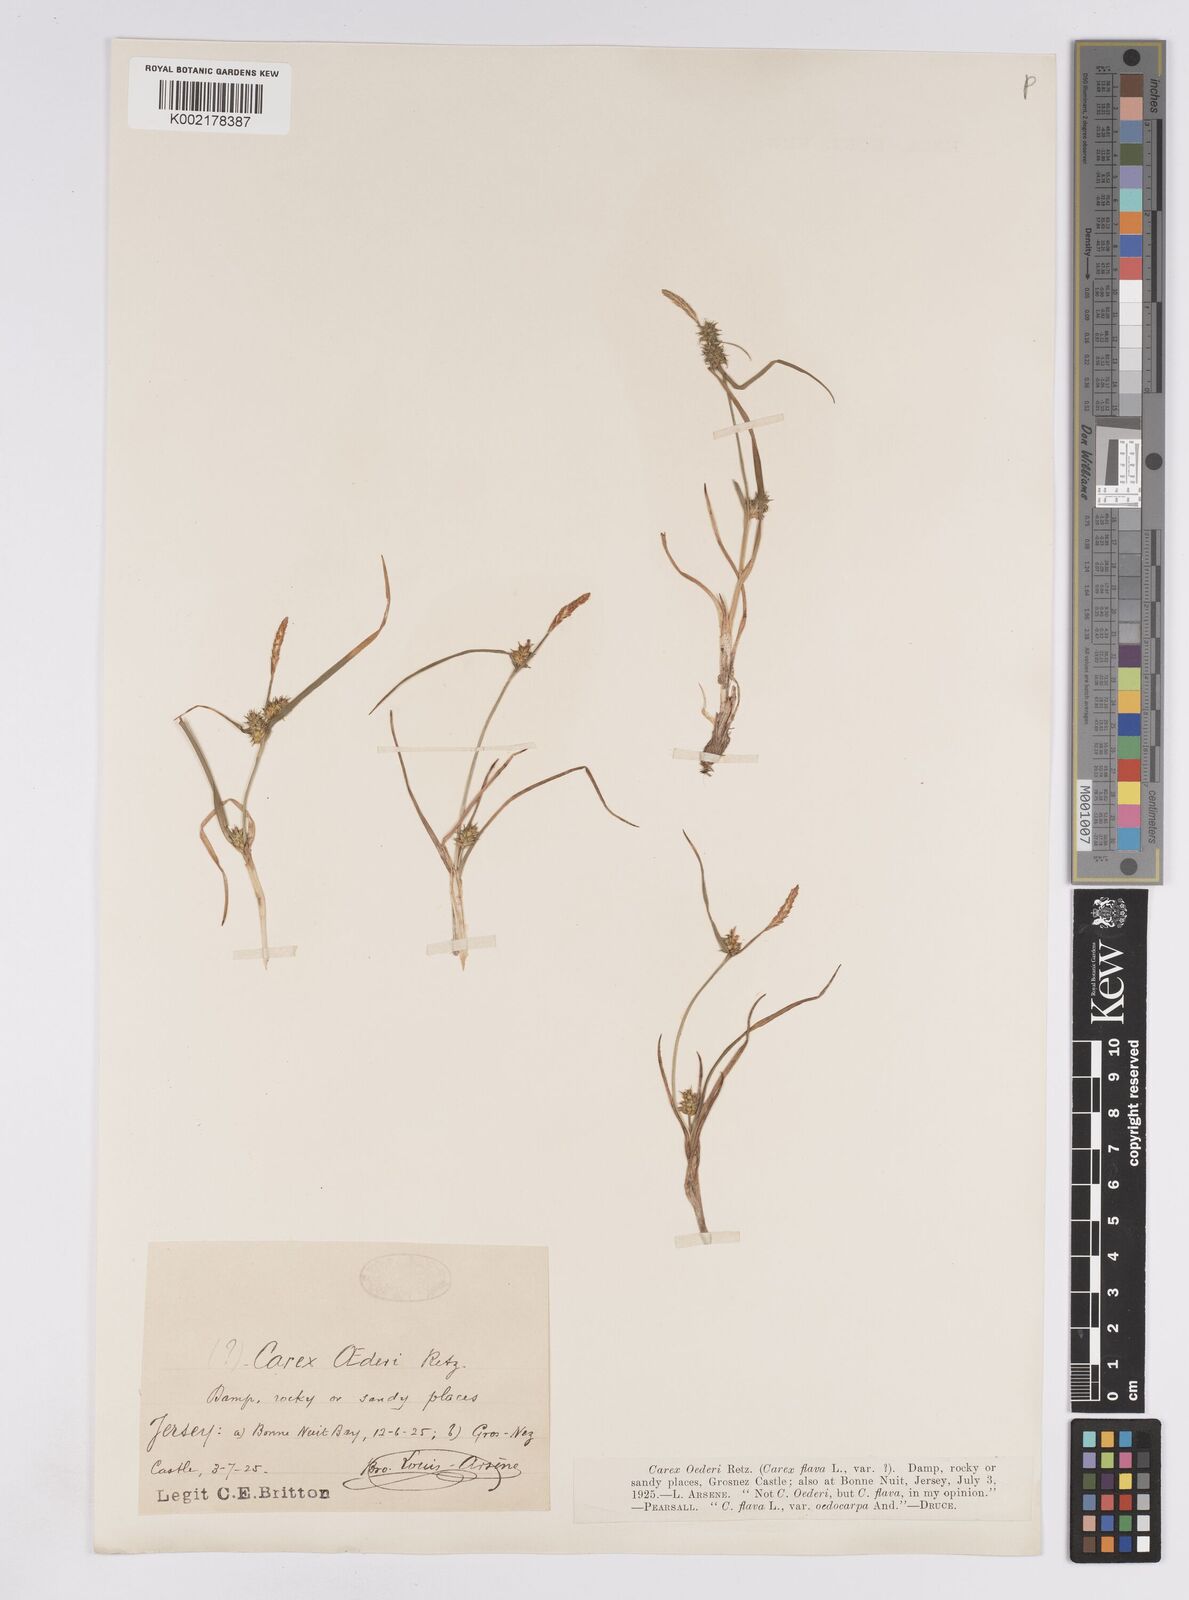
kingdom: Plantae
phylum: Tracheophyta
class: Liliopsida
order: Poales
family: Cyperaceae
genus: Carex
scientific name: Carex demissa
